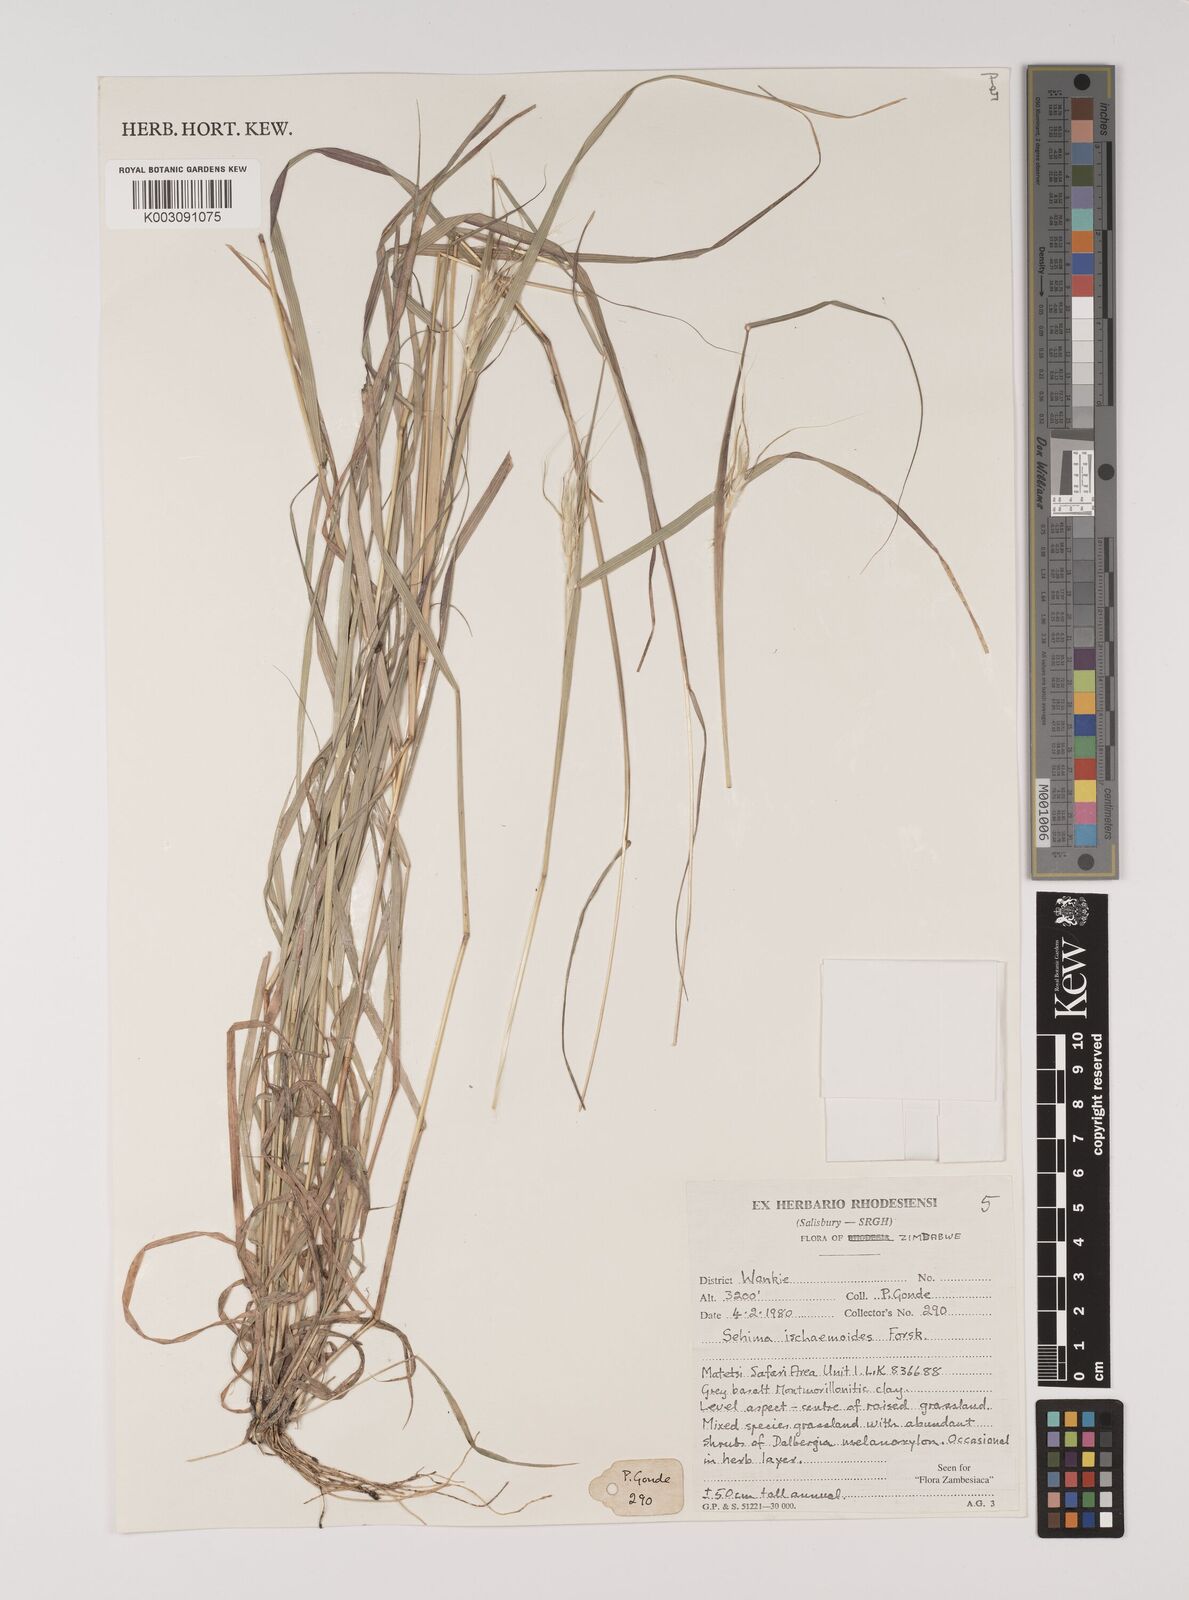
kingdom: Plantae
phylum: Tracheophyta
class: Liliopsida
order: Poales
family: Poaceae
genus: Sehima
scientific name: Sehima ischaemoides
